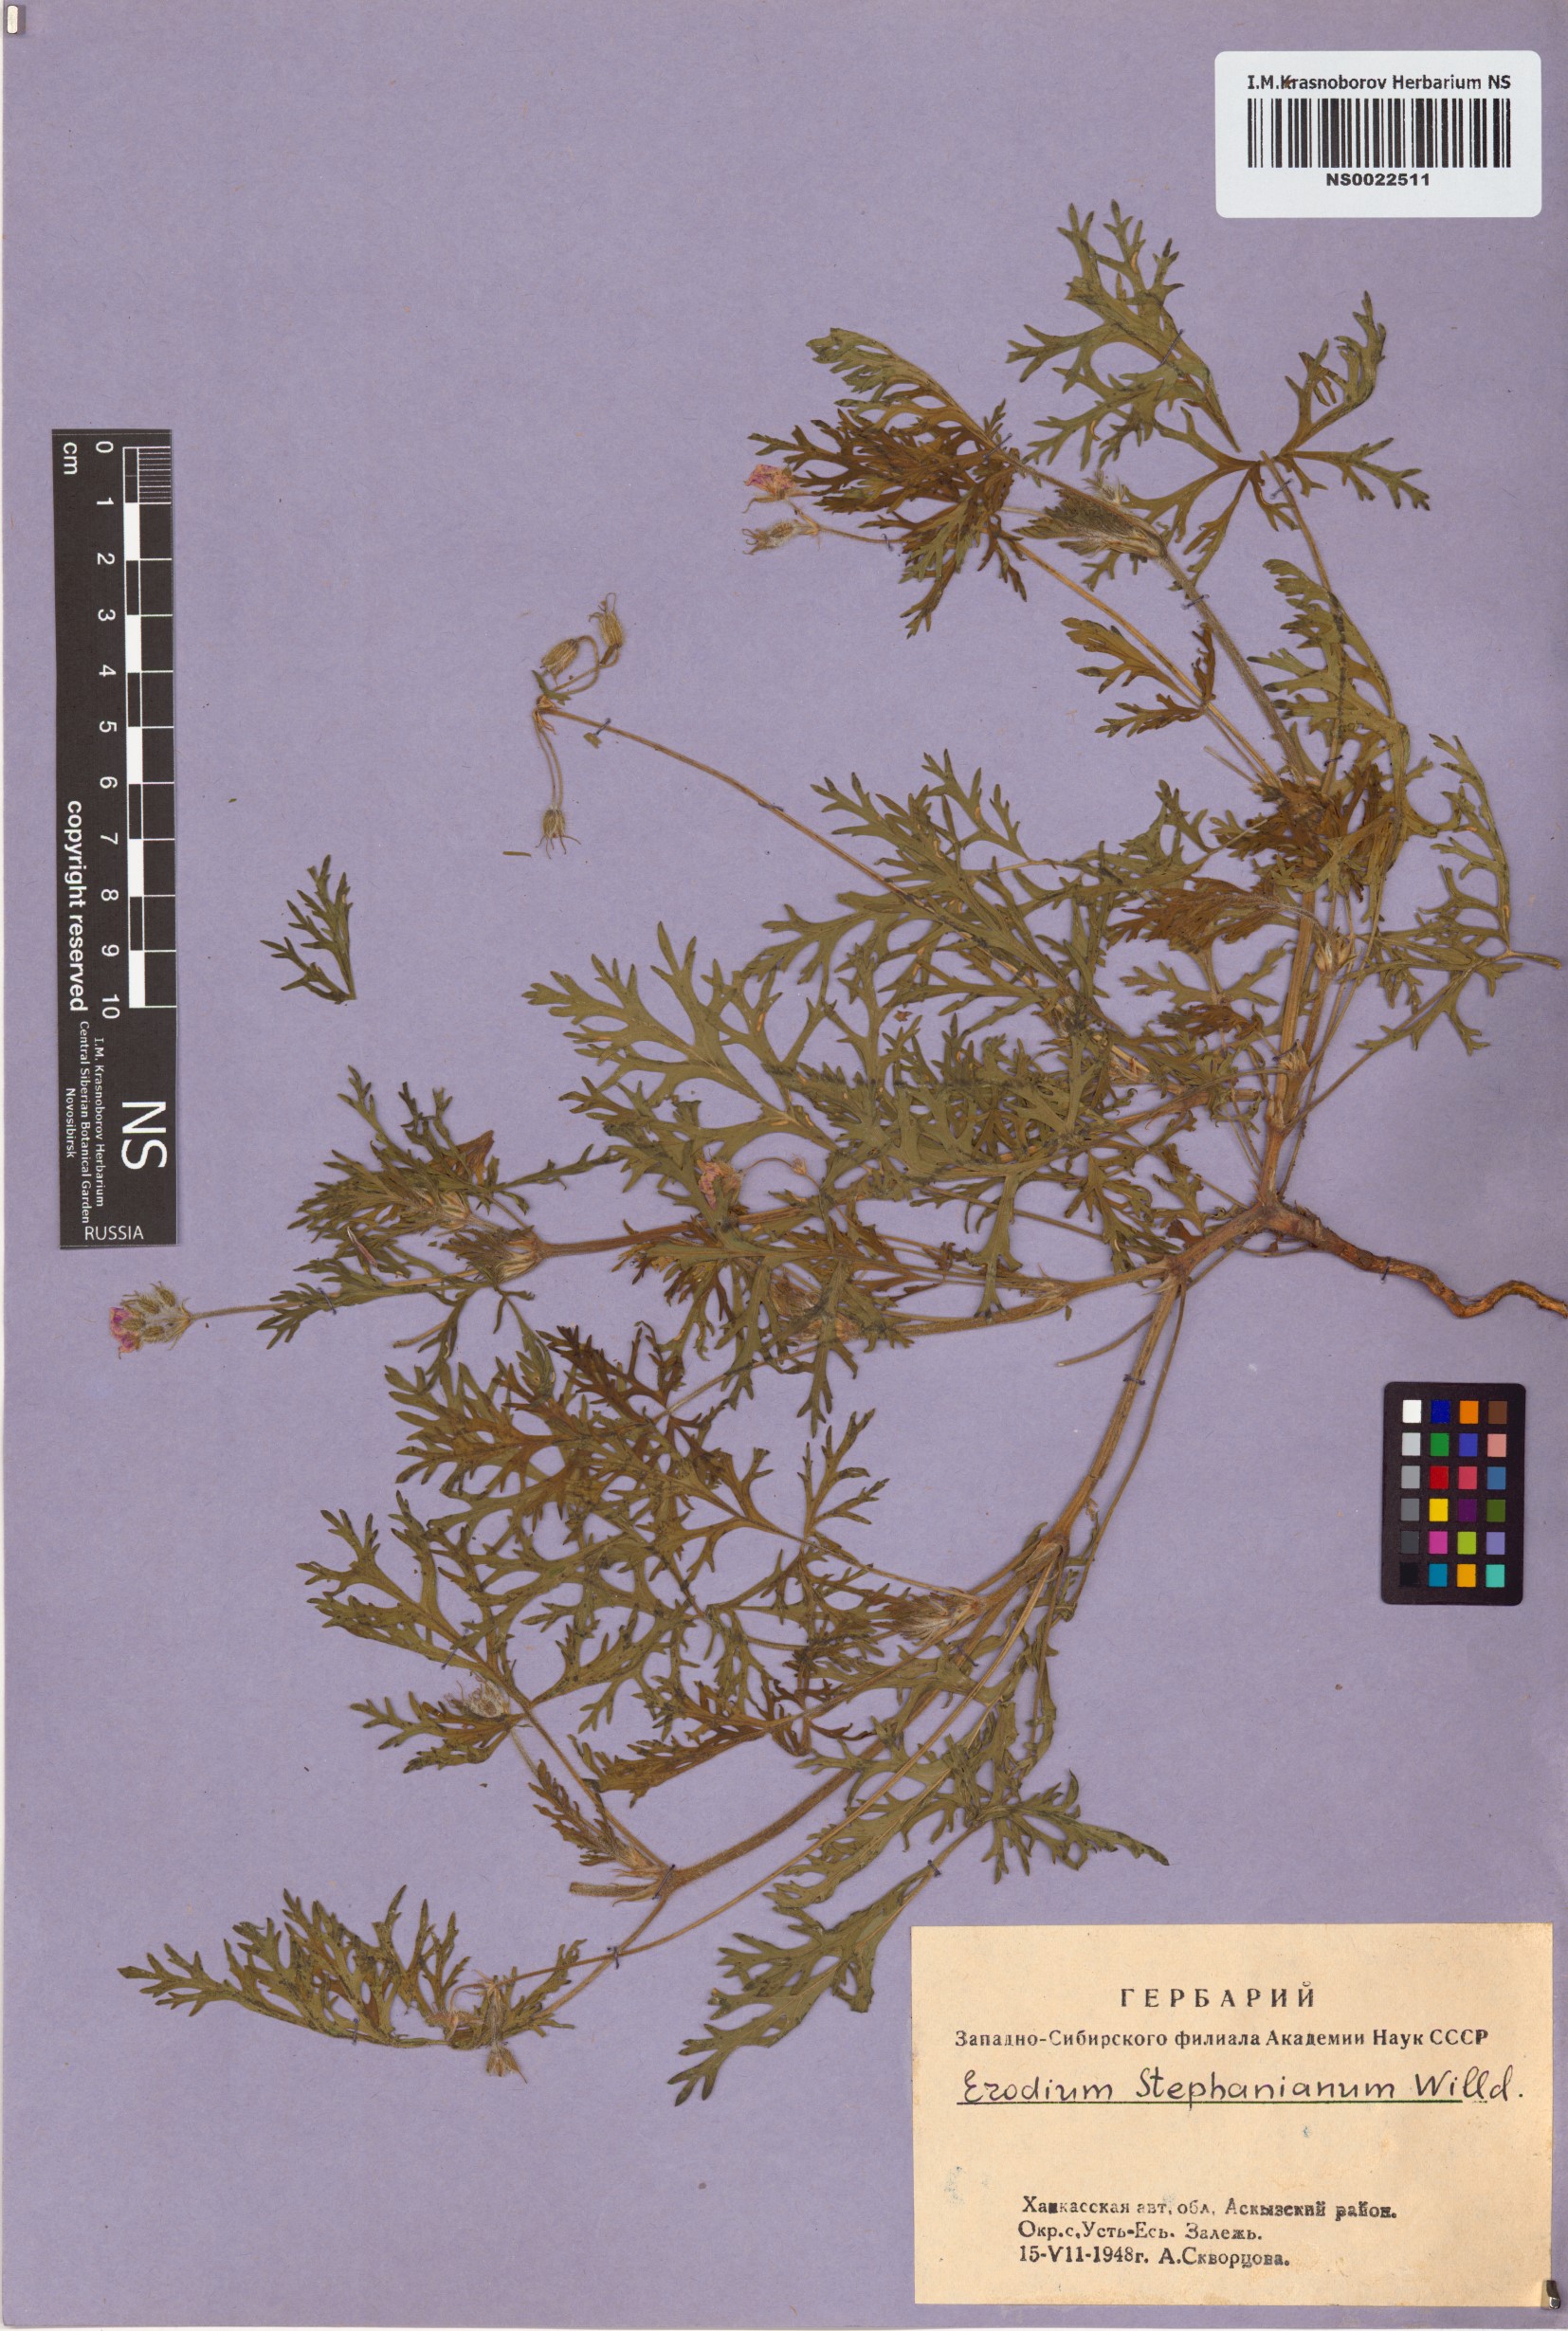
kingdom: Plantae
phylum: Tracheophyta
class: Magnoliopsida
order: Geraniales
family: Geraniaceae
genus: Erodium
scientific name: Erodium stephanianum
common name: Stephen's stork's bill
